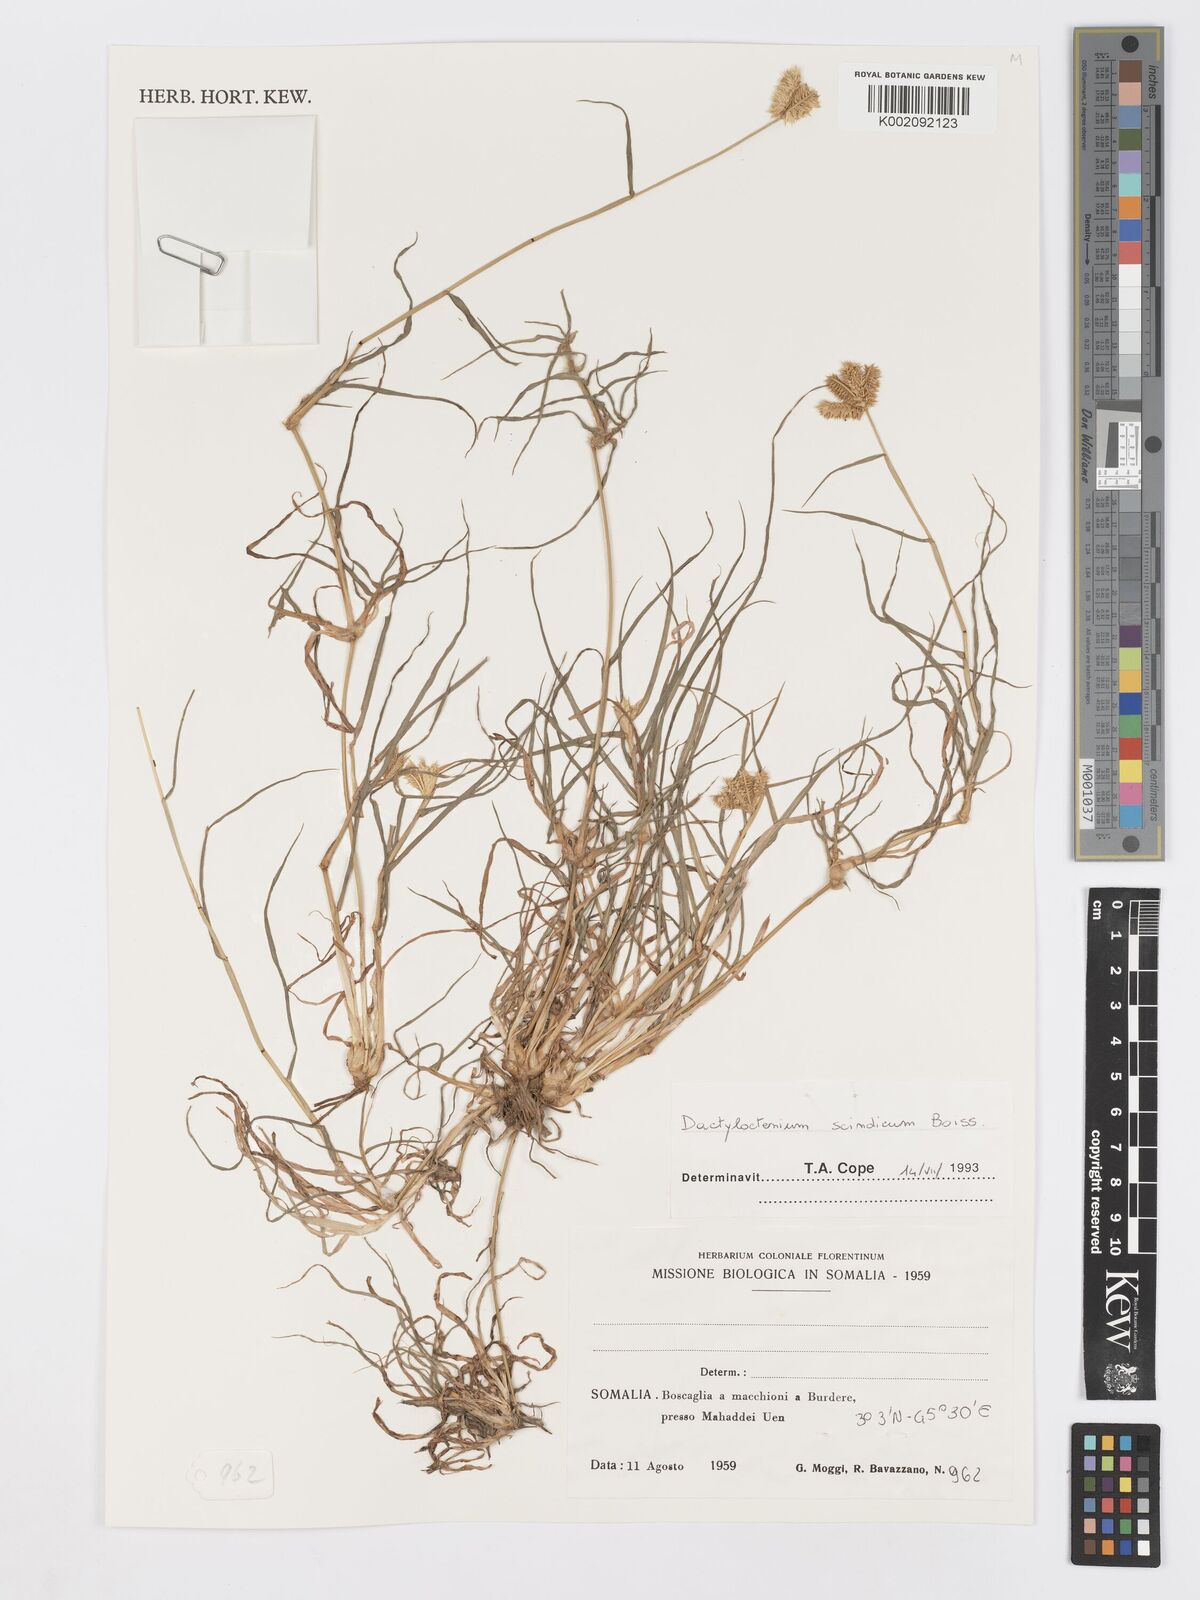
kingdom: Plantae
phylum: Tracheophyta
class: Liliopsida
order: Poales
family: Poaceae
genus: Dactyloctenium
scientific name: Dactyloctenium scindicum
